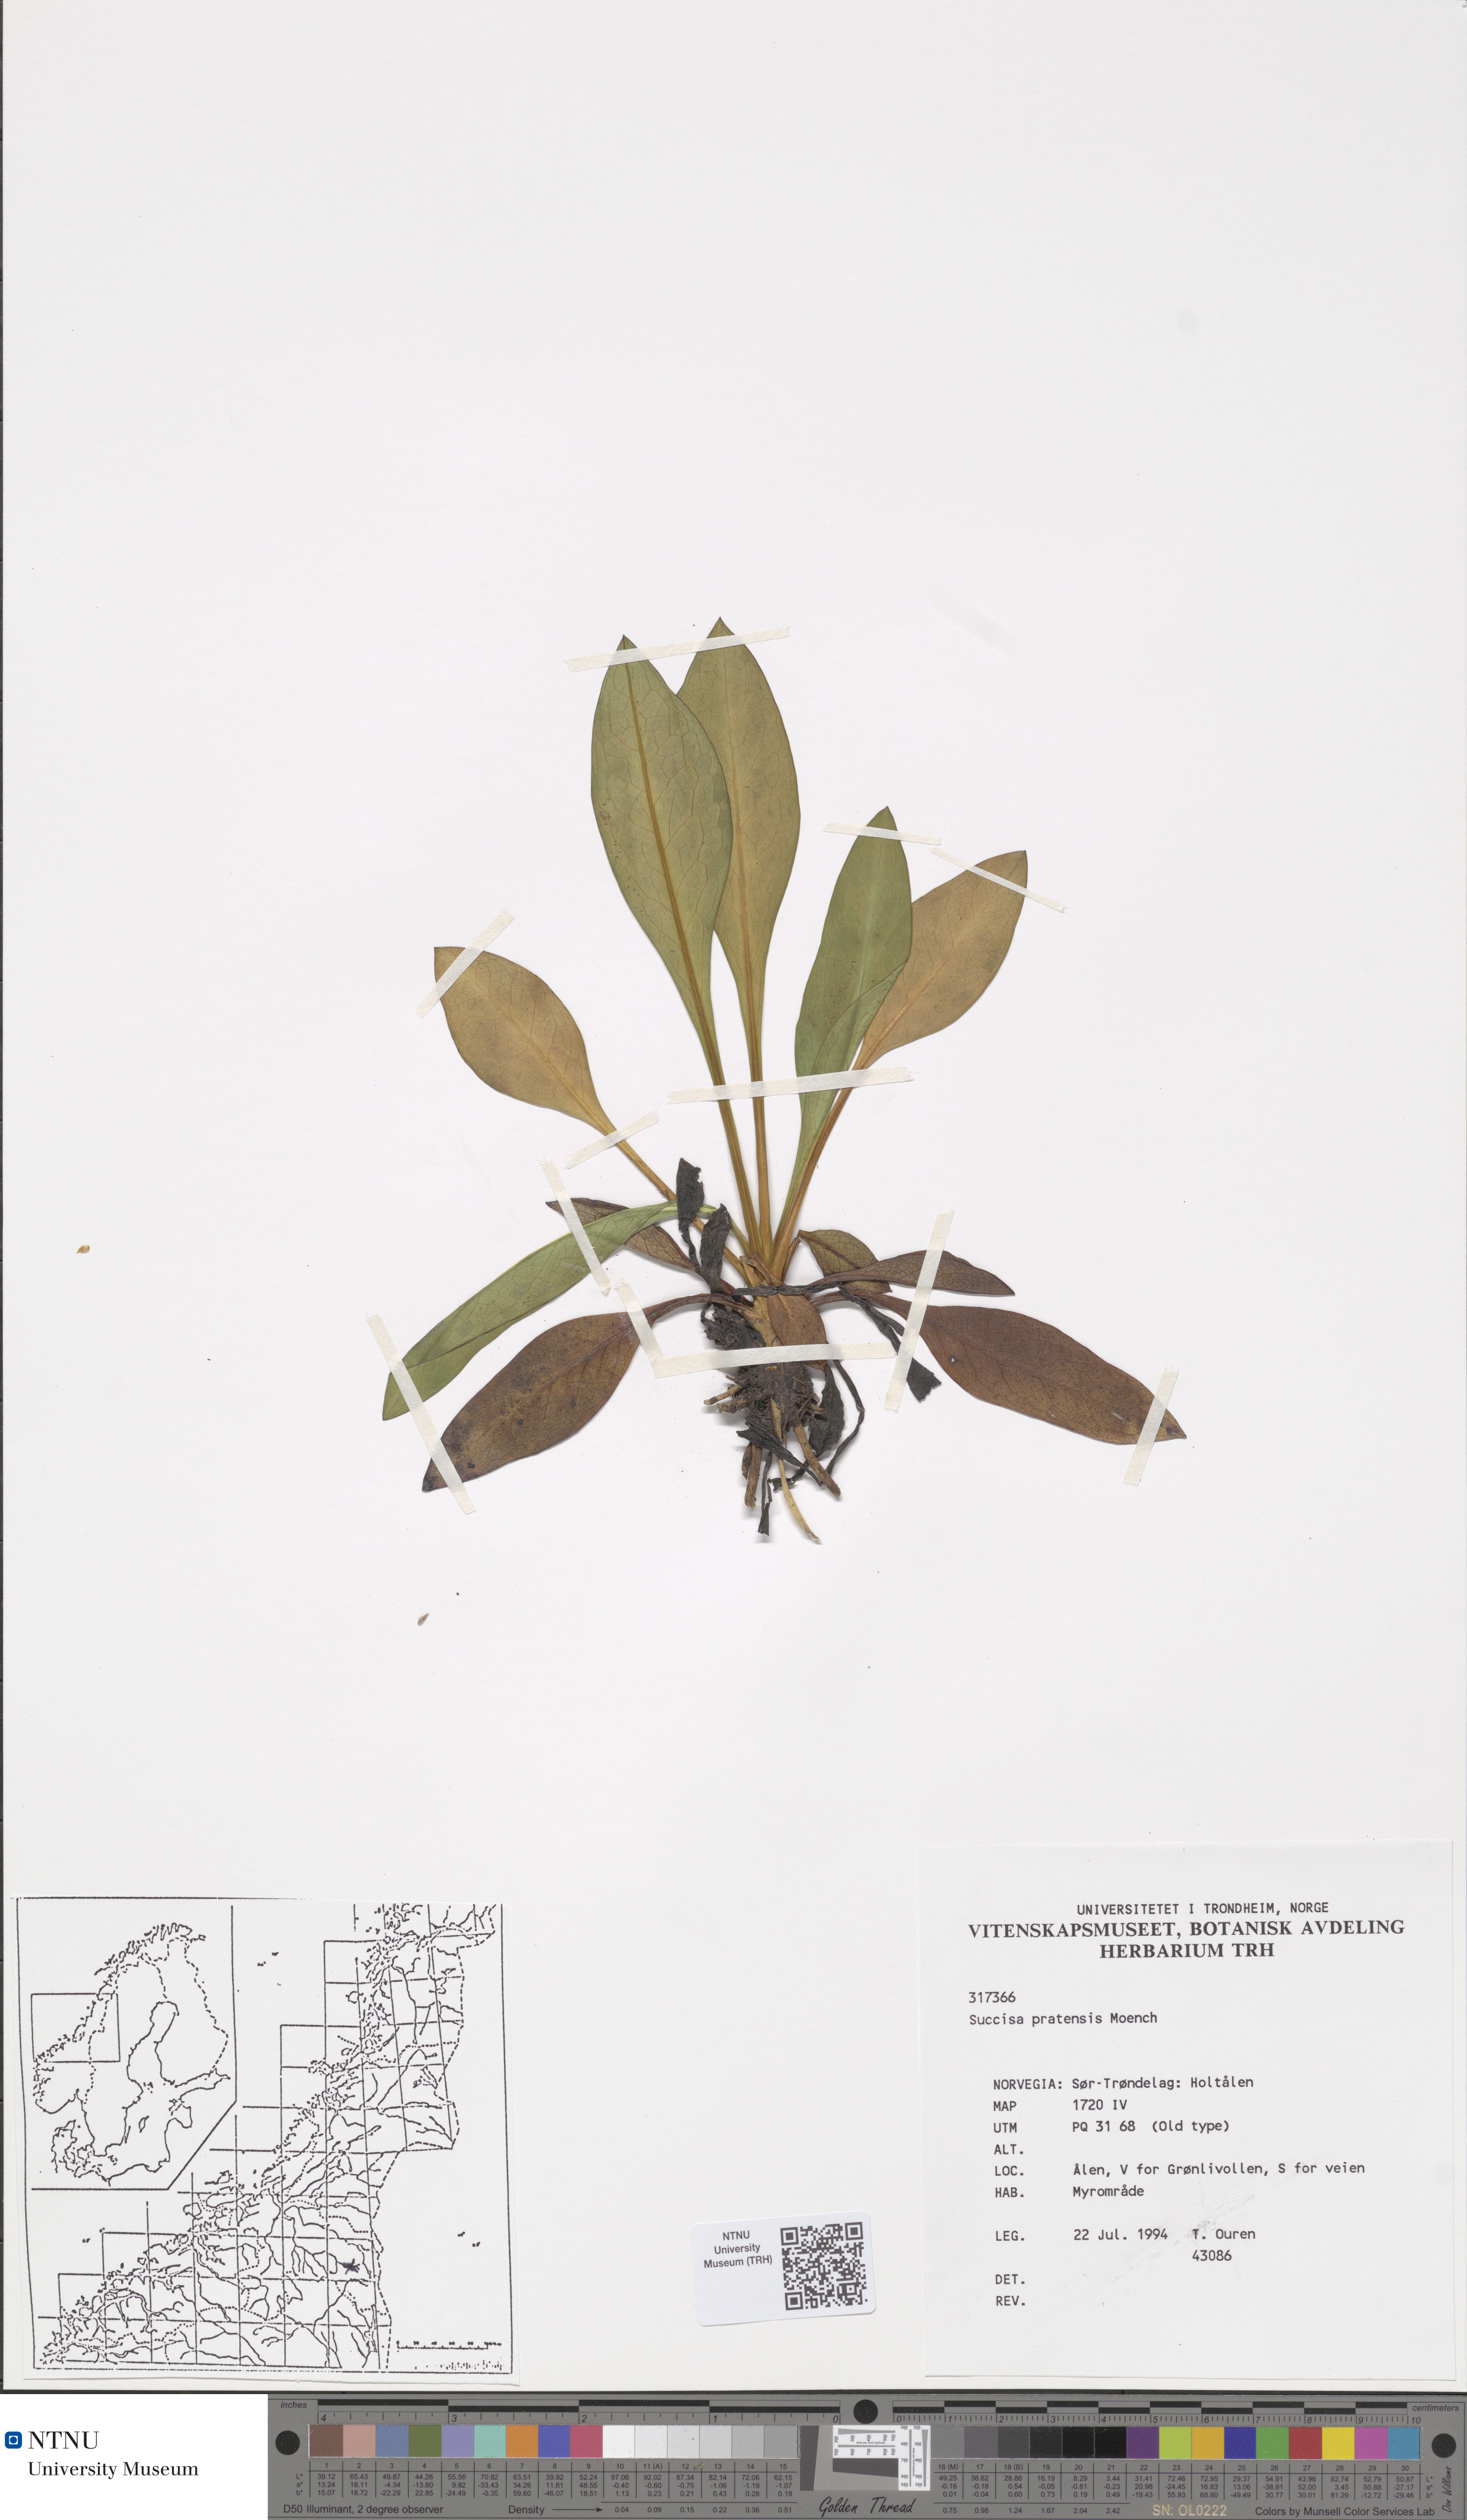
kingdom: Plantae
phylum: Tracheophyta
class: Magnoliopsida
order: Dipsacales
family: Caprifoliaceae
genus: Succisa
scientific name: Succisa pratensis
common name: Devil's-bit
